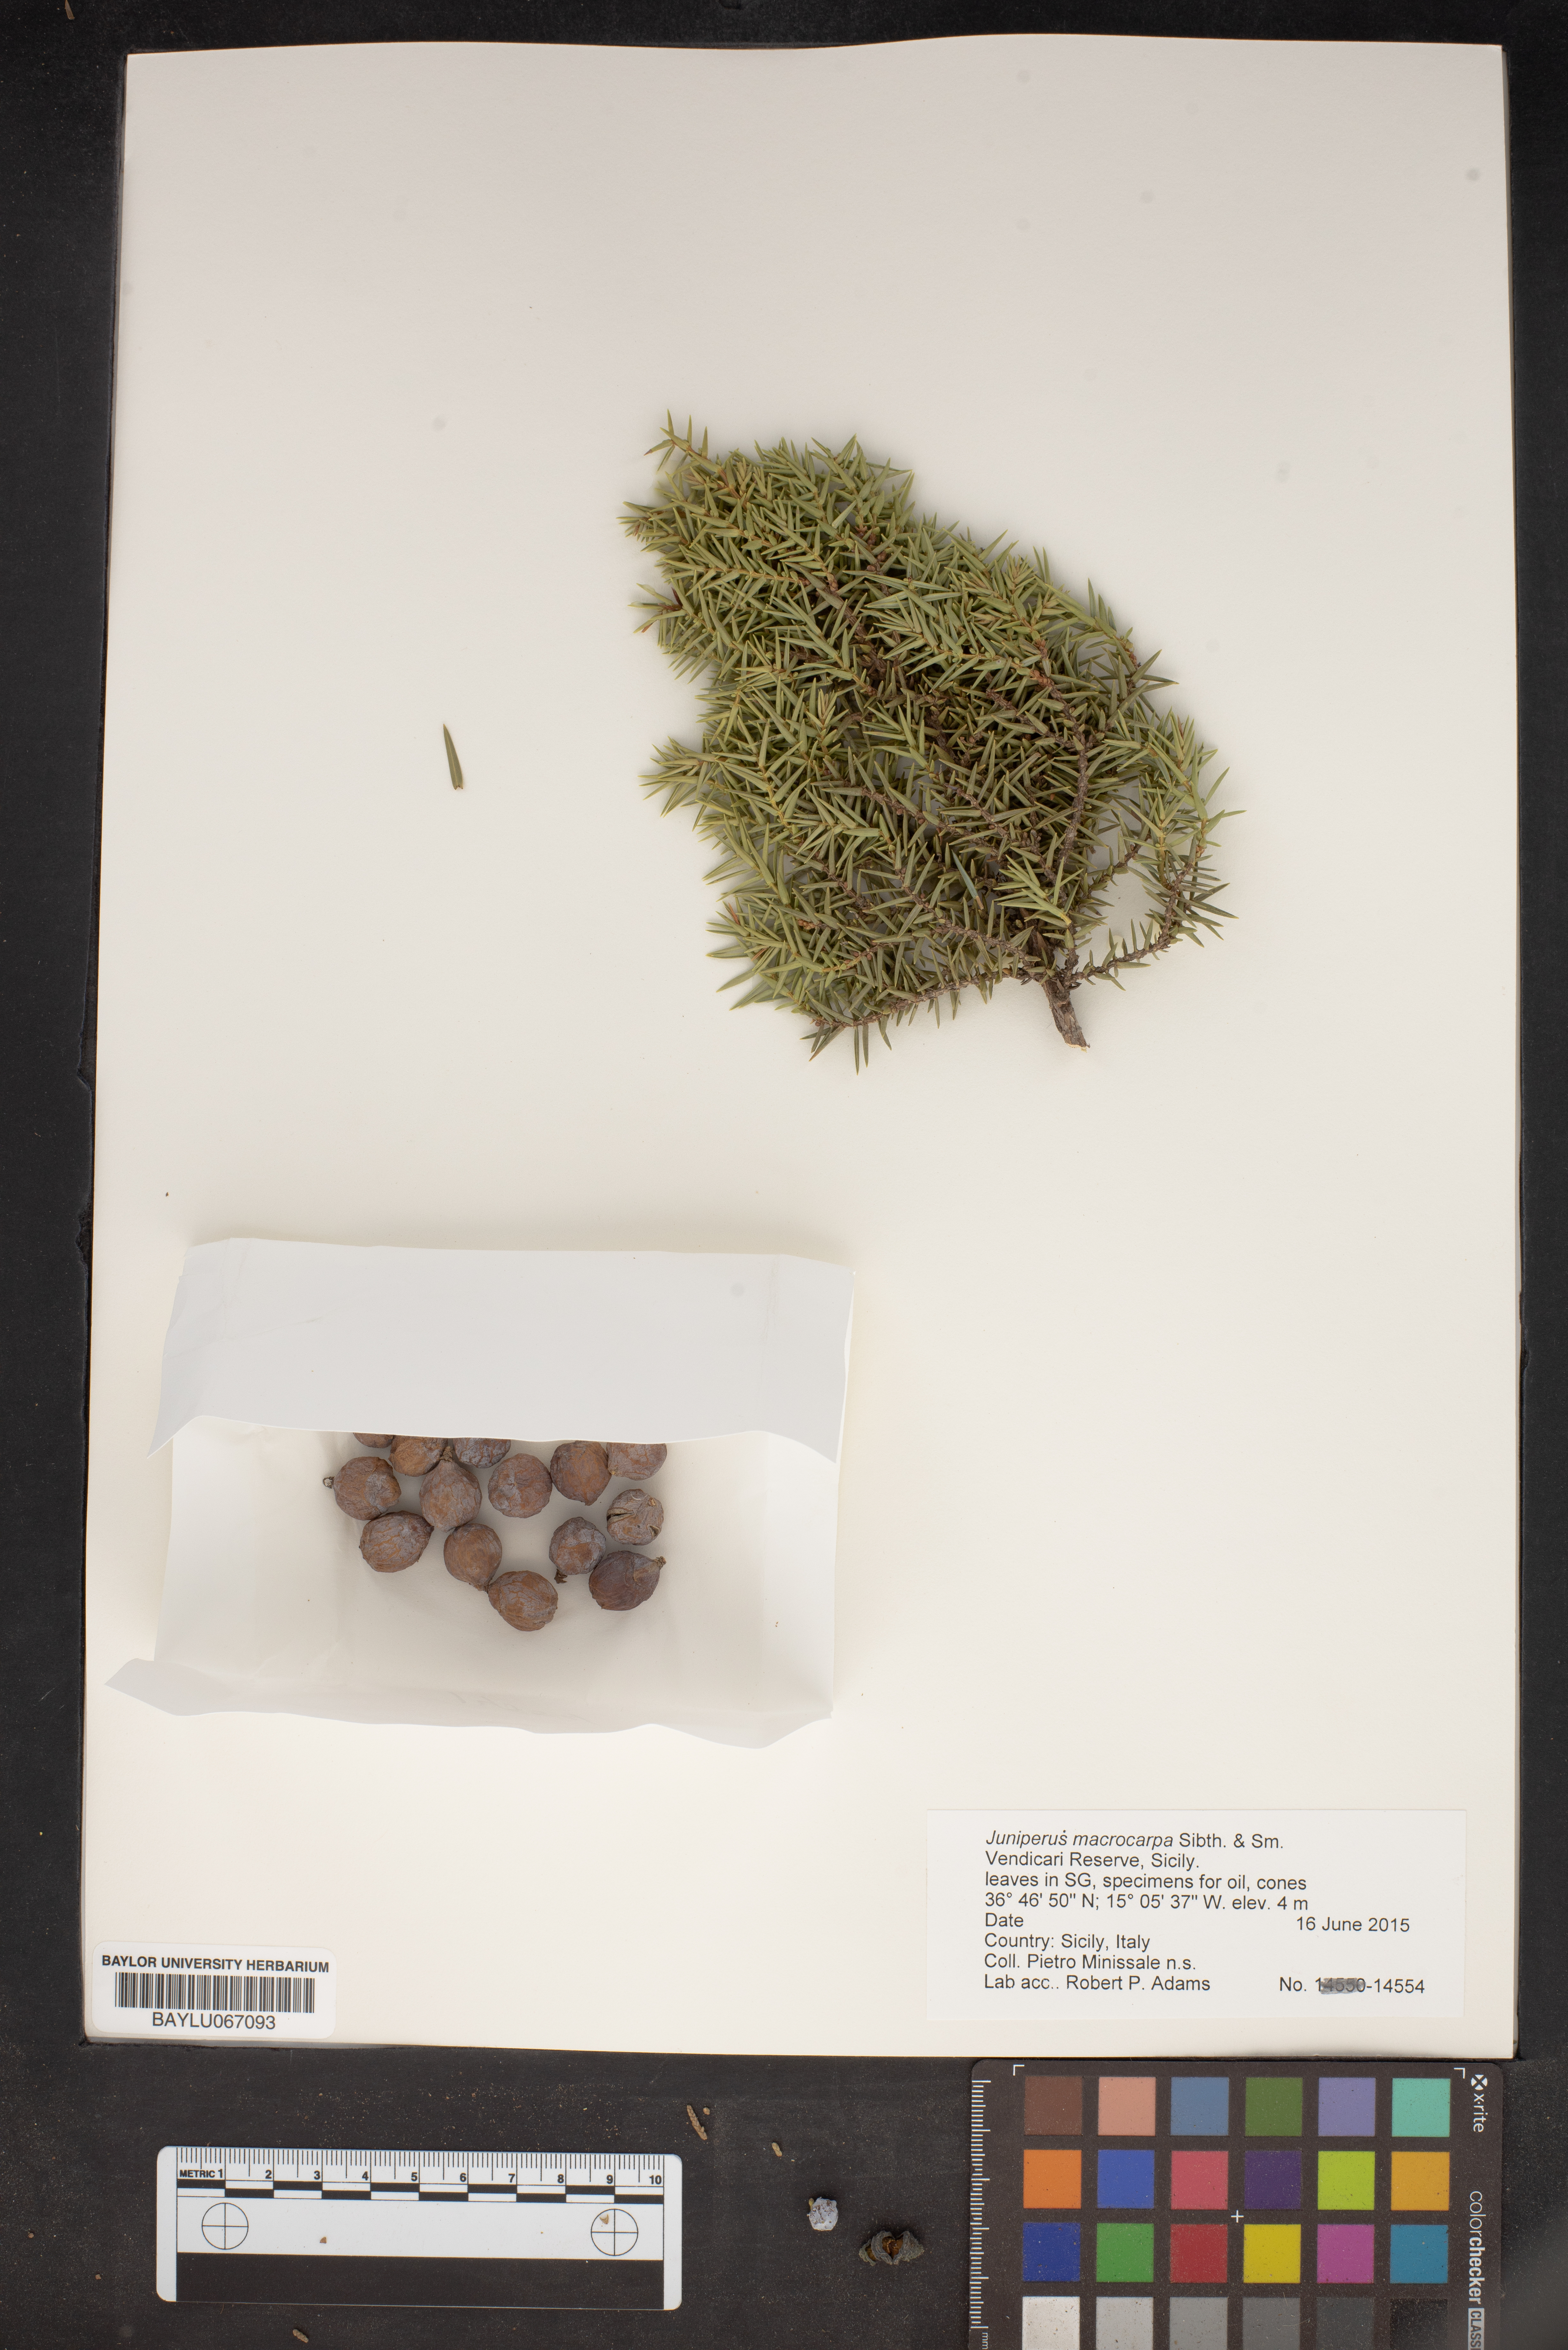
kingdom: Plantae
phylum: Tracheophyta
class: Pinopsida
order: Pinales
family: Cupressaceae
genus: Juniperus
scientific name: Juniperus oxycedrus
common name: Prickly juniper
